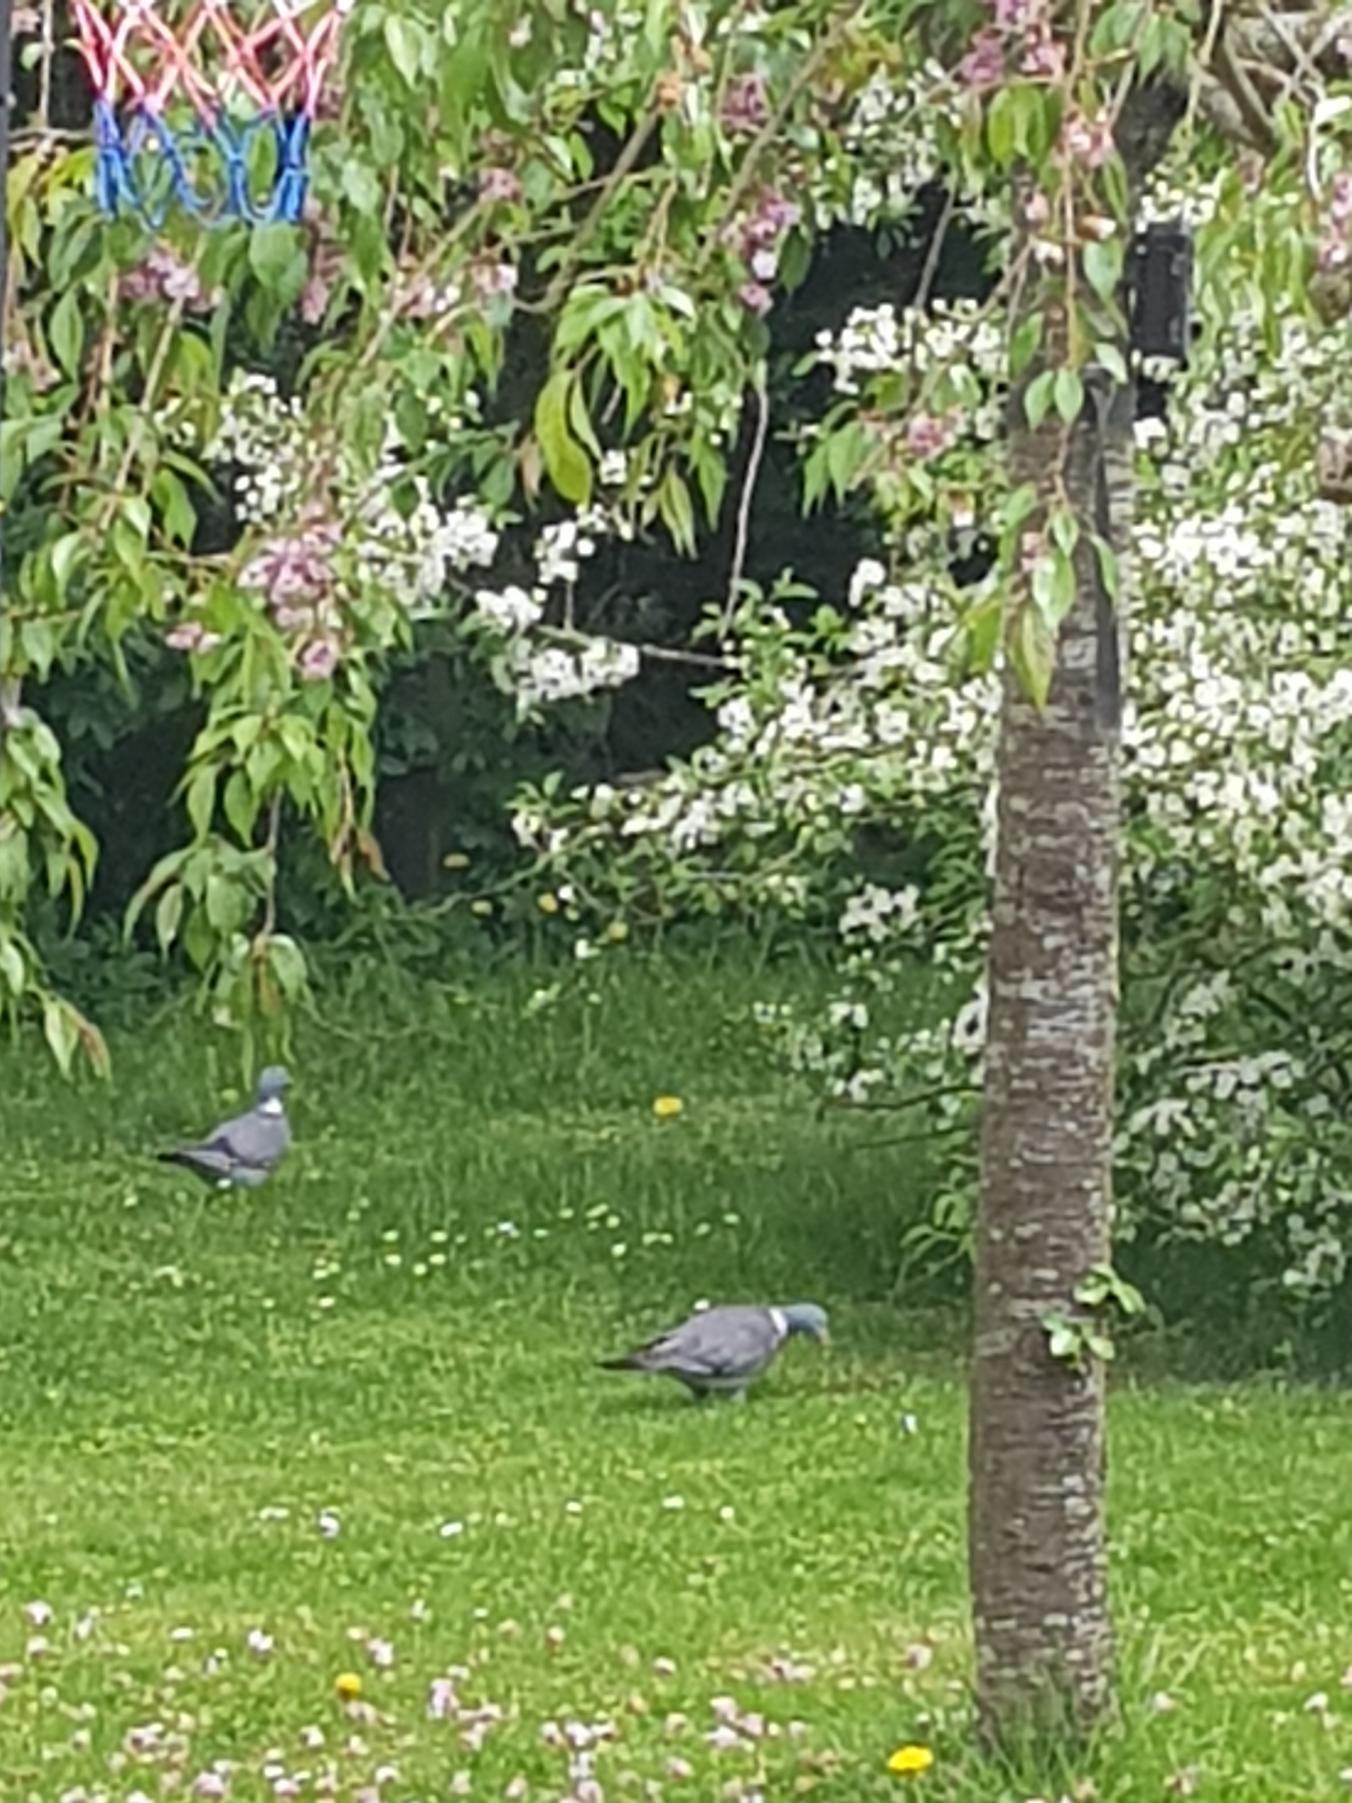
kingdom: Animalia
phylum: Chordata
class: Aves
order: Columbiformes
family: Columbidae
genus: Columba
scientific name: Columba palumbus
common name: Ringdue
